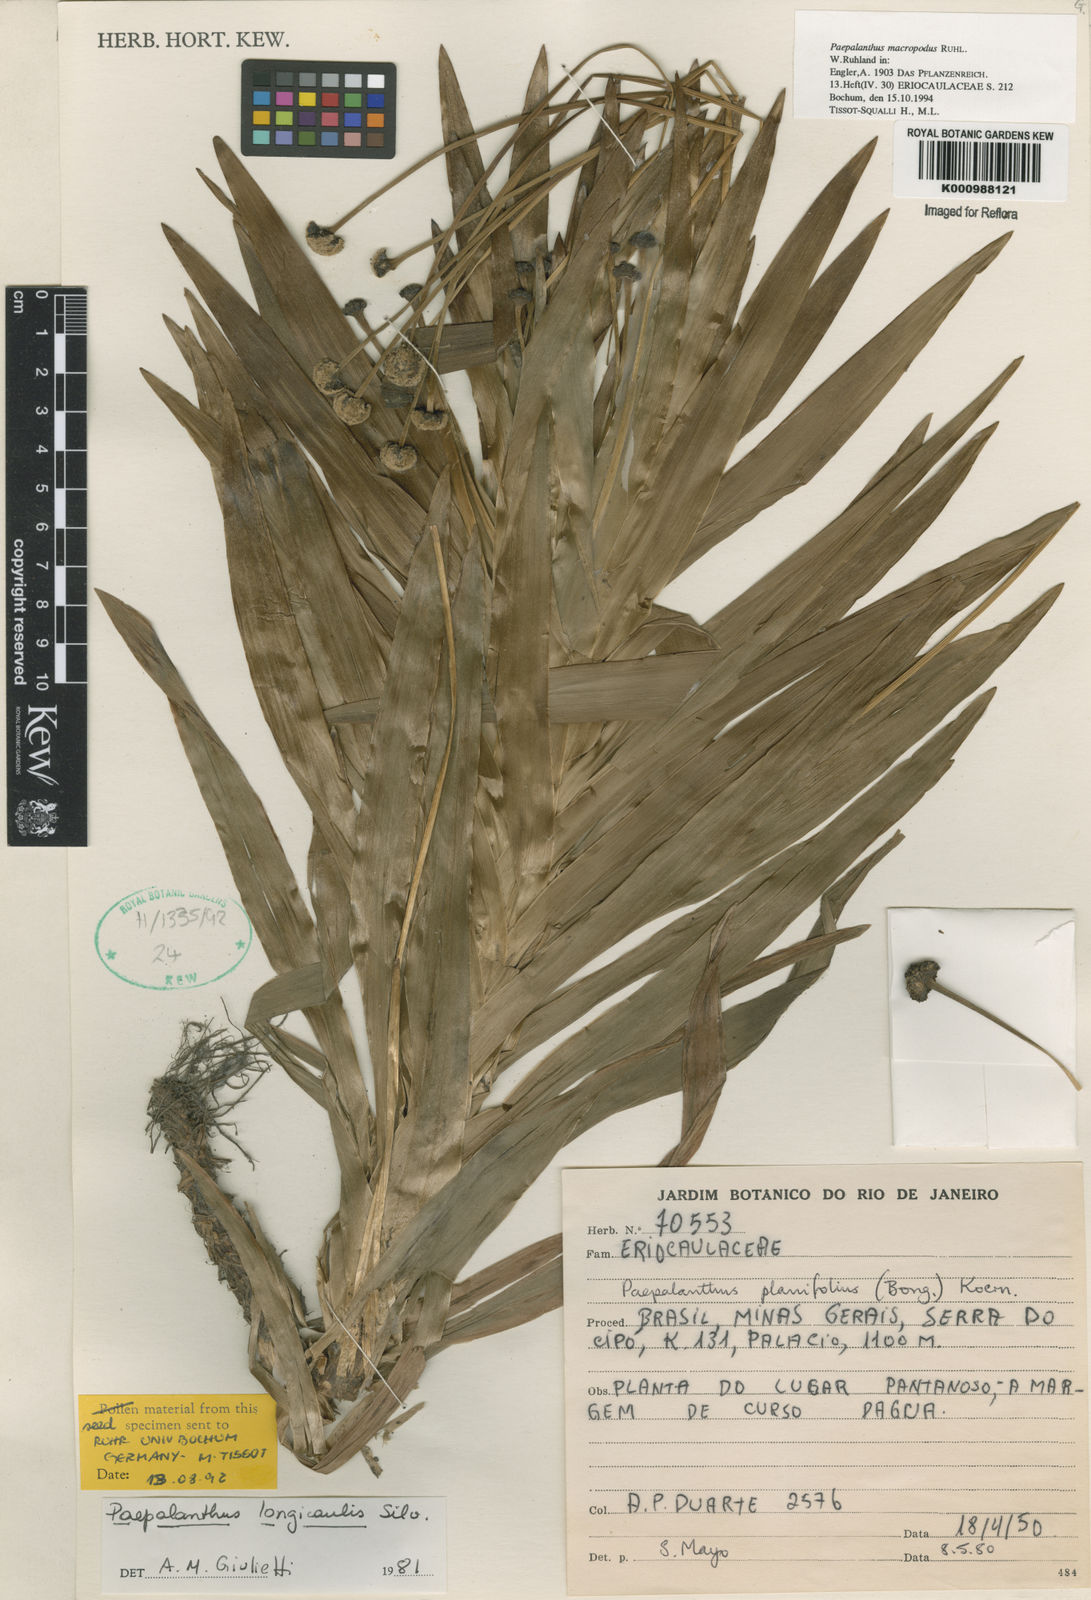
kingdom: Plantae
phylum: Tracheophyta
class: Liliopsida
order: Poales
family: Eriocaulaceae
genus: Paepalanthus
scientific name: Paepalanthus macropodus
